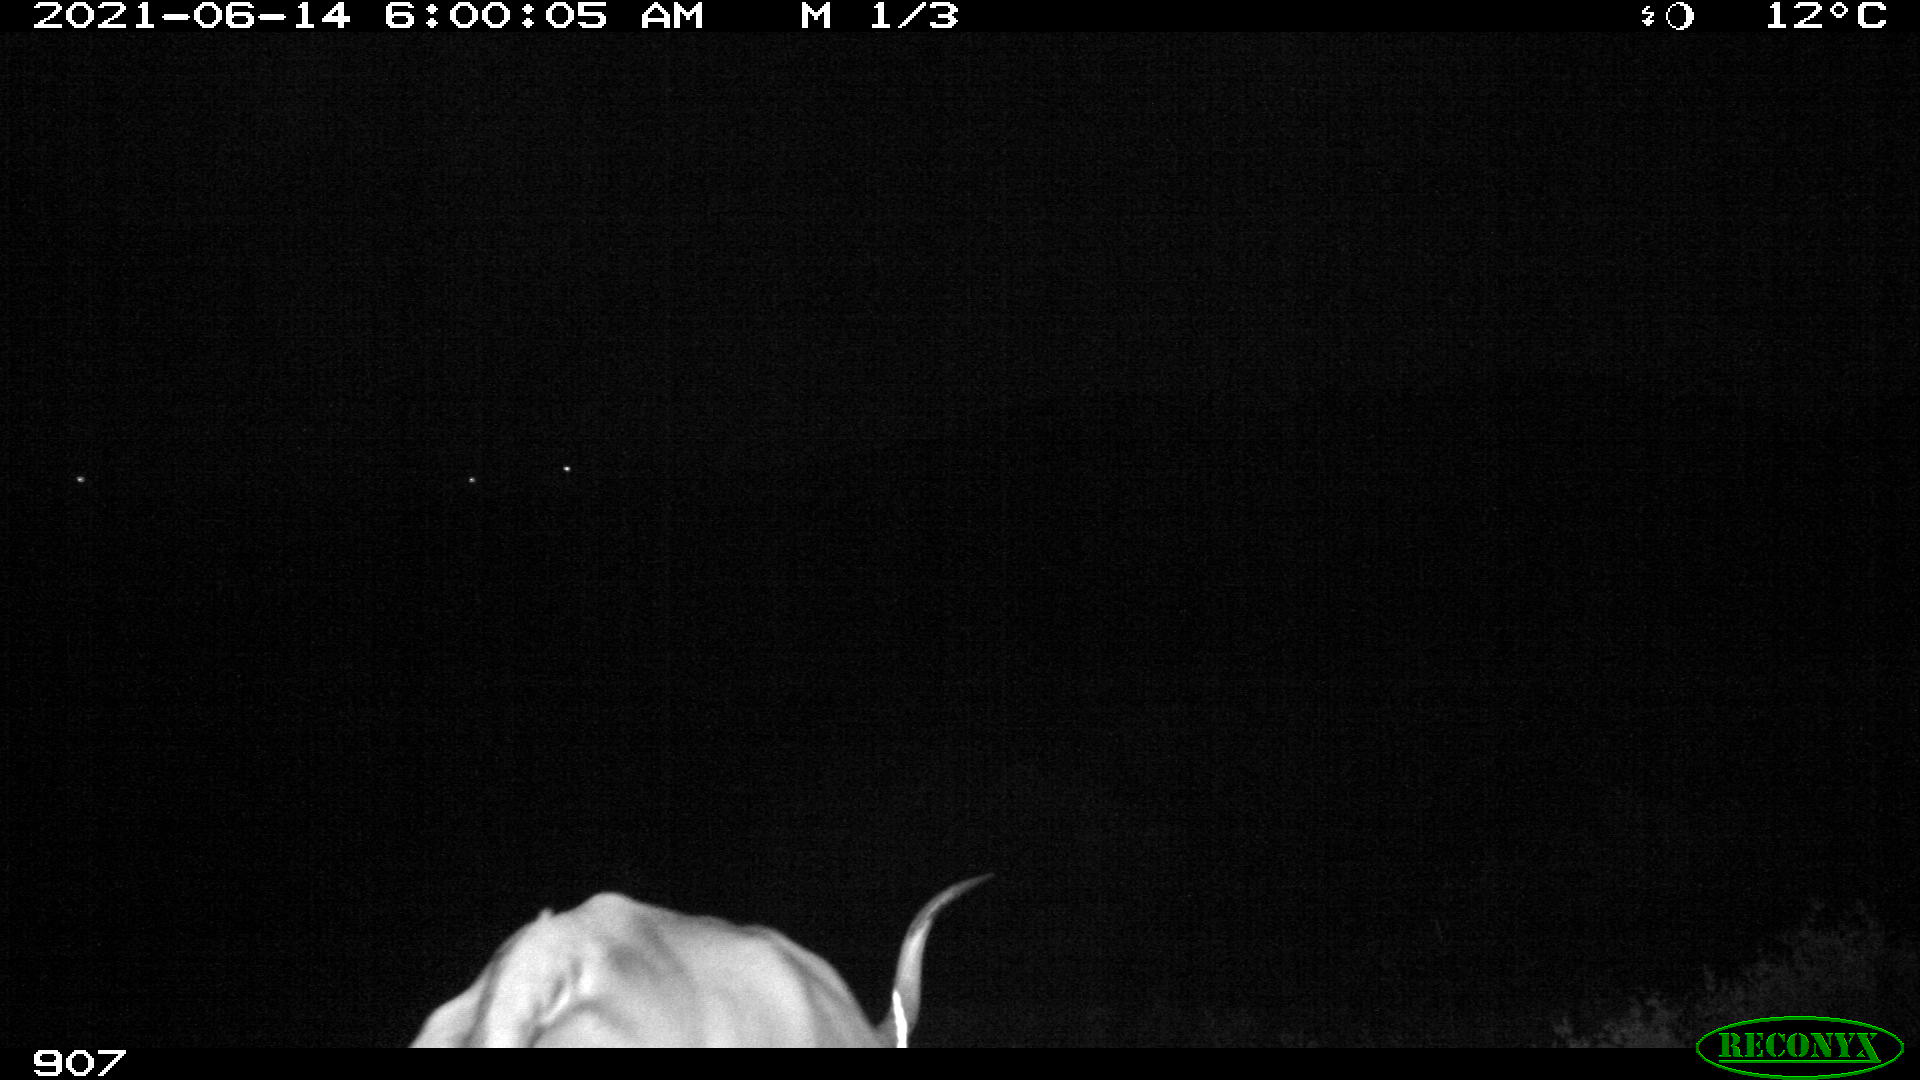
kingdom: Animalia
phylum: Chordata
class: Mammalia
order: Artiodactyla
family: Bovidae
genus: Bos
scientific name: Bos taurus
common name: Domesticated cattle
